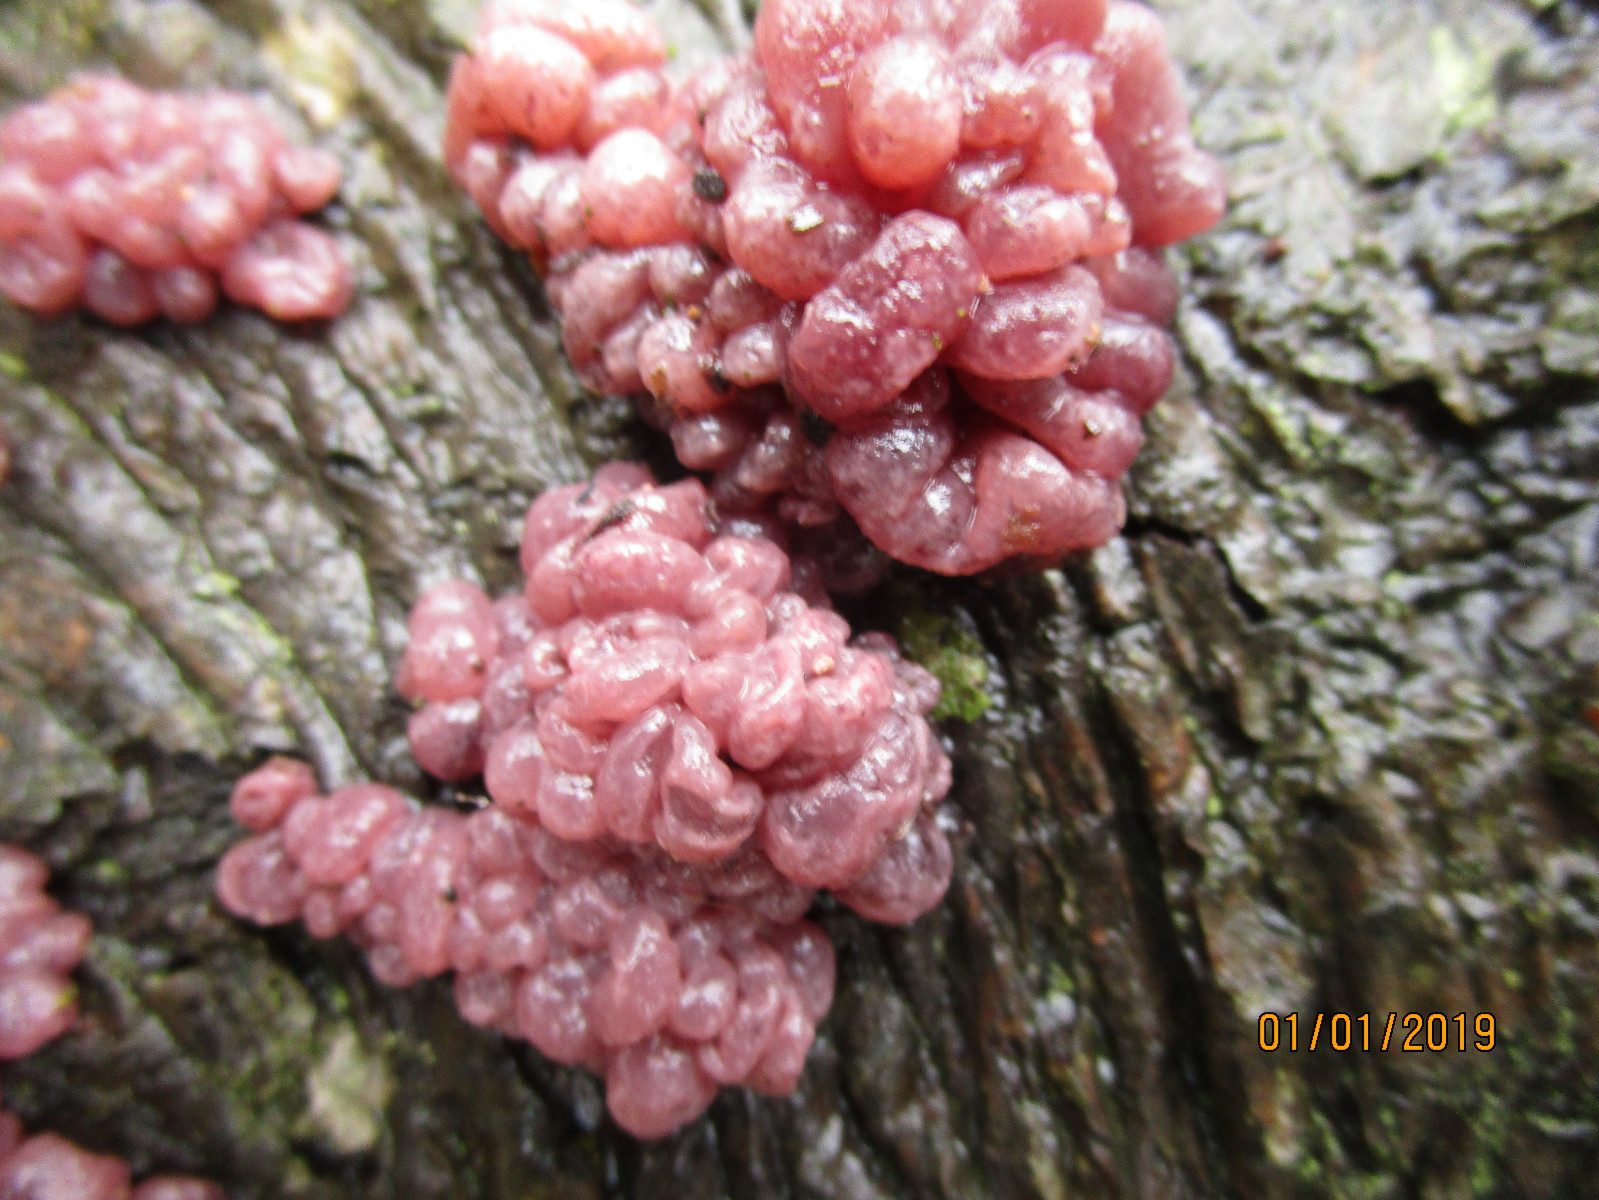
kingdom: Fungi
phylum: Ascomycota
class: Leotiomycetes
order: Helotiales
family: Gelatinodiscaceae
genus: Ascocoryne
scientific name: Ascocoryne sarcoides
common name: rødlilla sejskive
